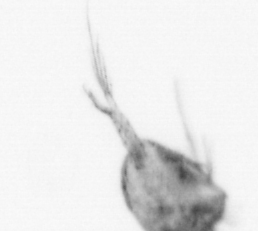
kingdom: Animalia
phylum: Arthropoda
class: Copepoda
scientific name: Copepoda
